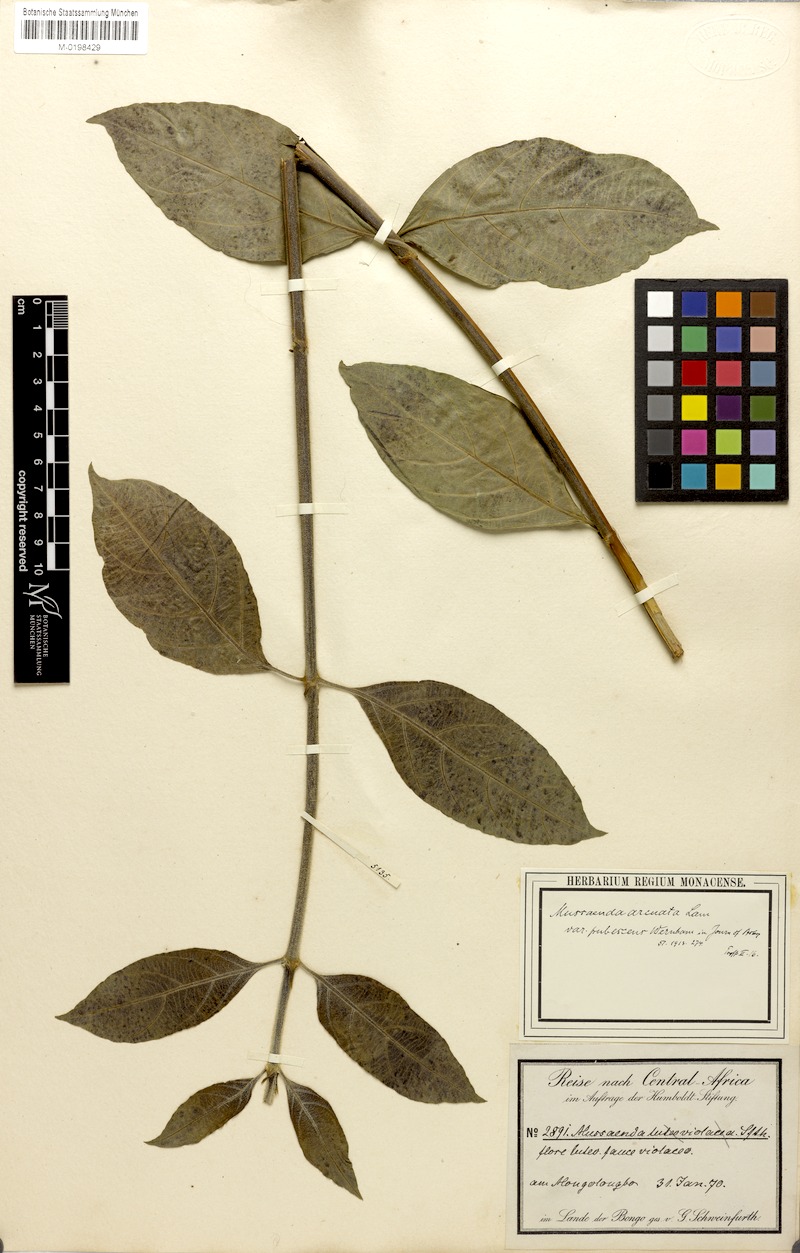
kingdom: Plantae
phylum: Tracheophyta
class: Magnoliopsida
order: Gentianales
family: Rubiaceae
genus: Mussaenda
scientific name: Mussaenda arcuata
